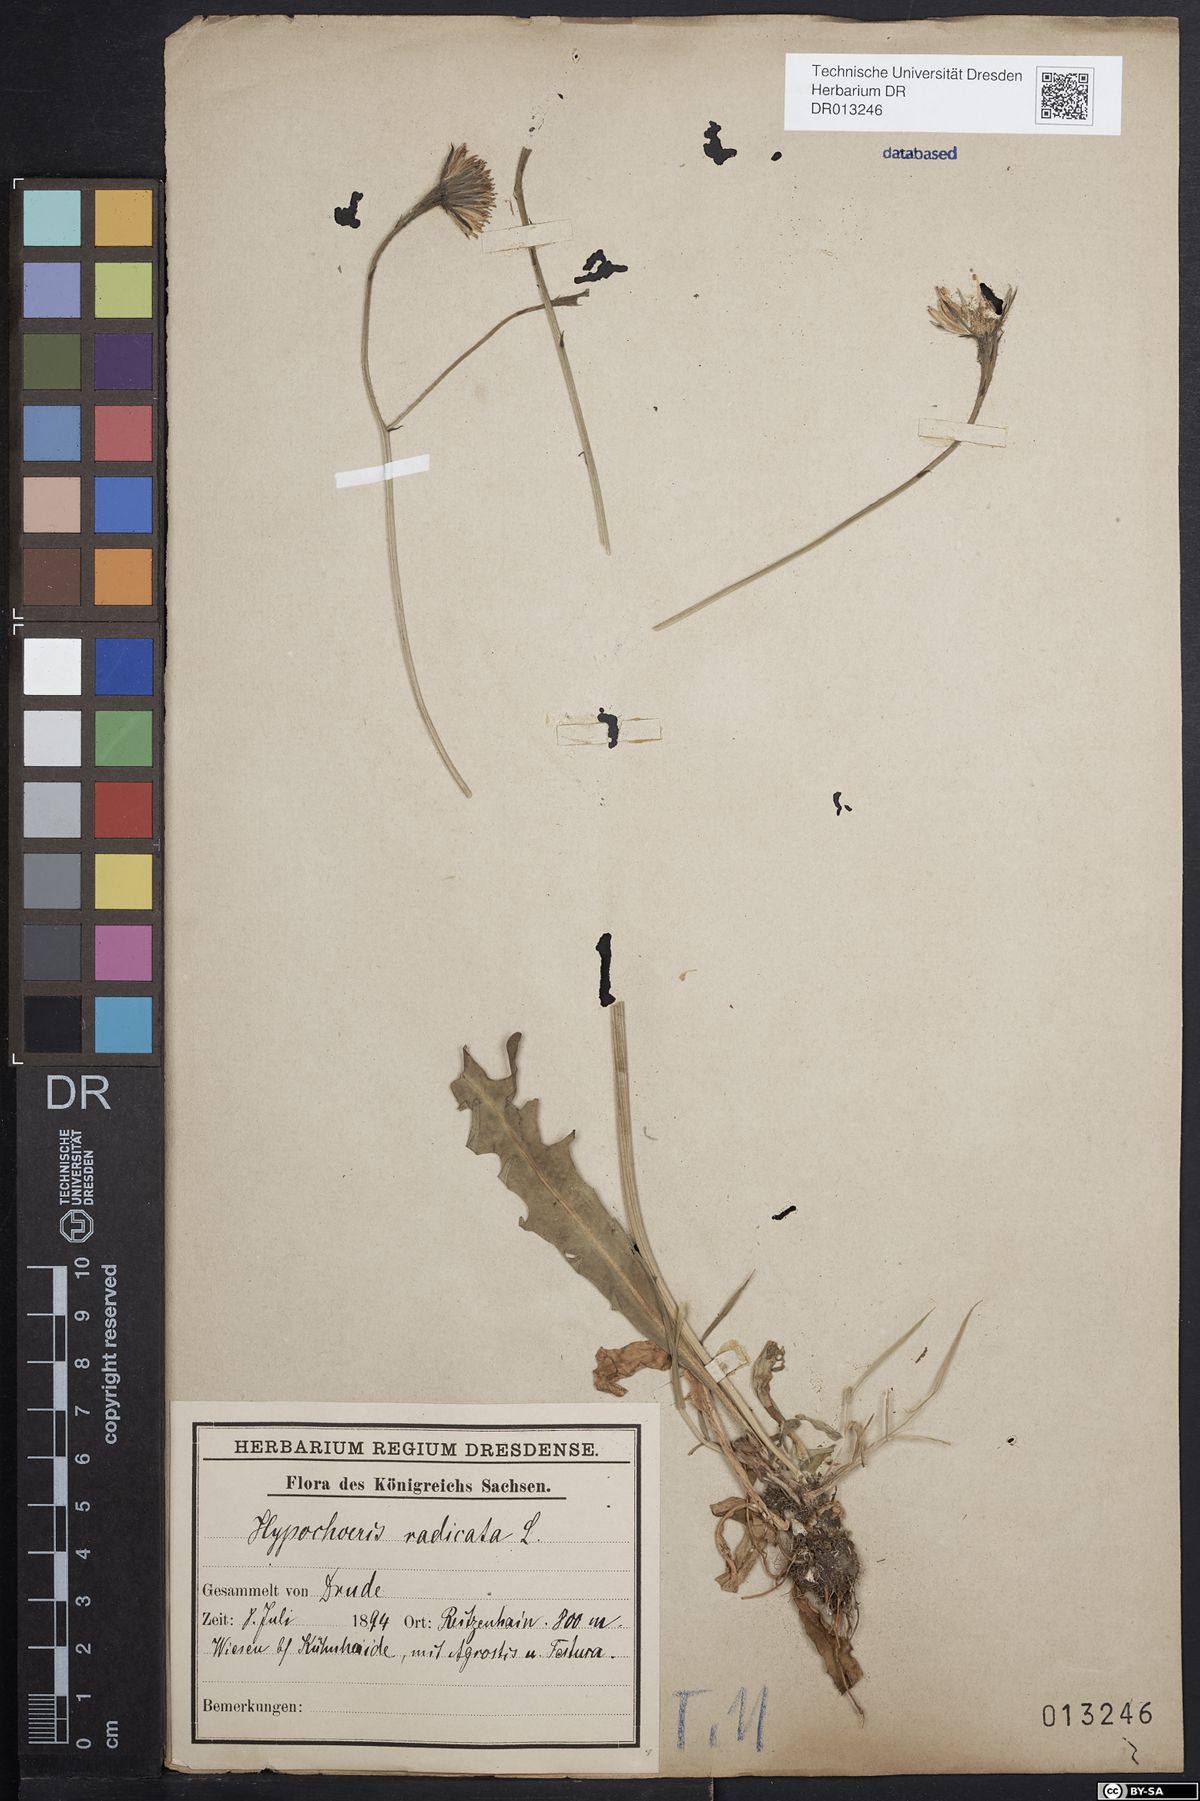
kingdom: Plantae
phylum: Tracheophyta
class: Magnoliopsida
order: Asterales
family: Asteraceae
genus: Hypochaeris
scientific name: Hypochaeris radicata
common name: Flatweed
